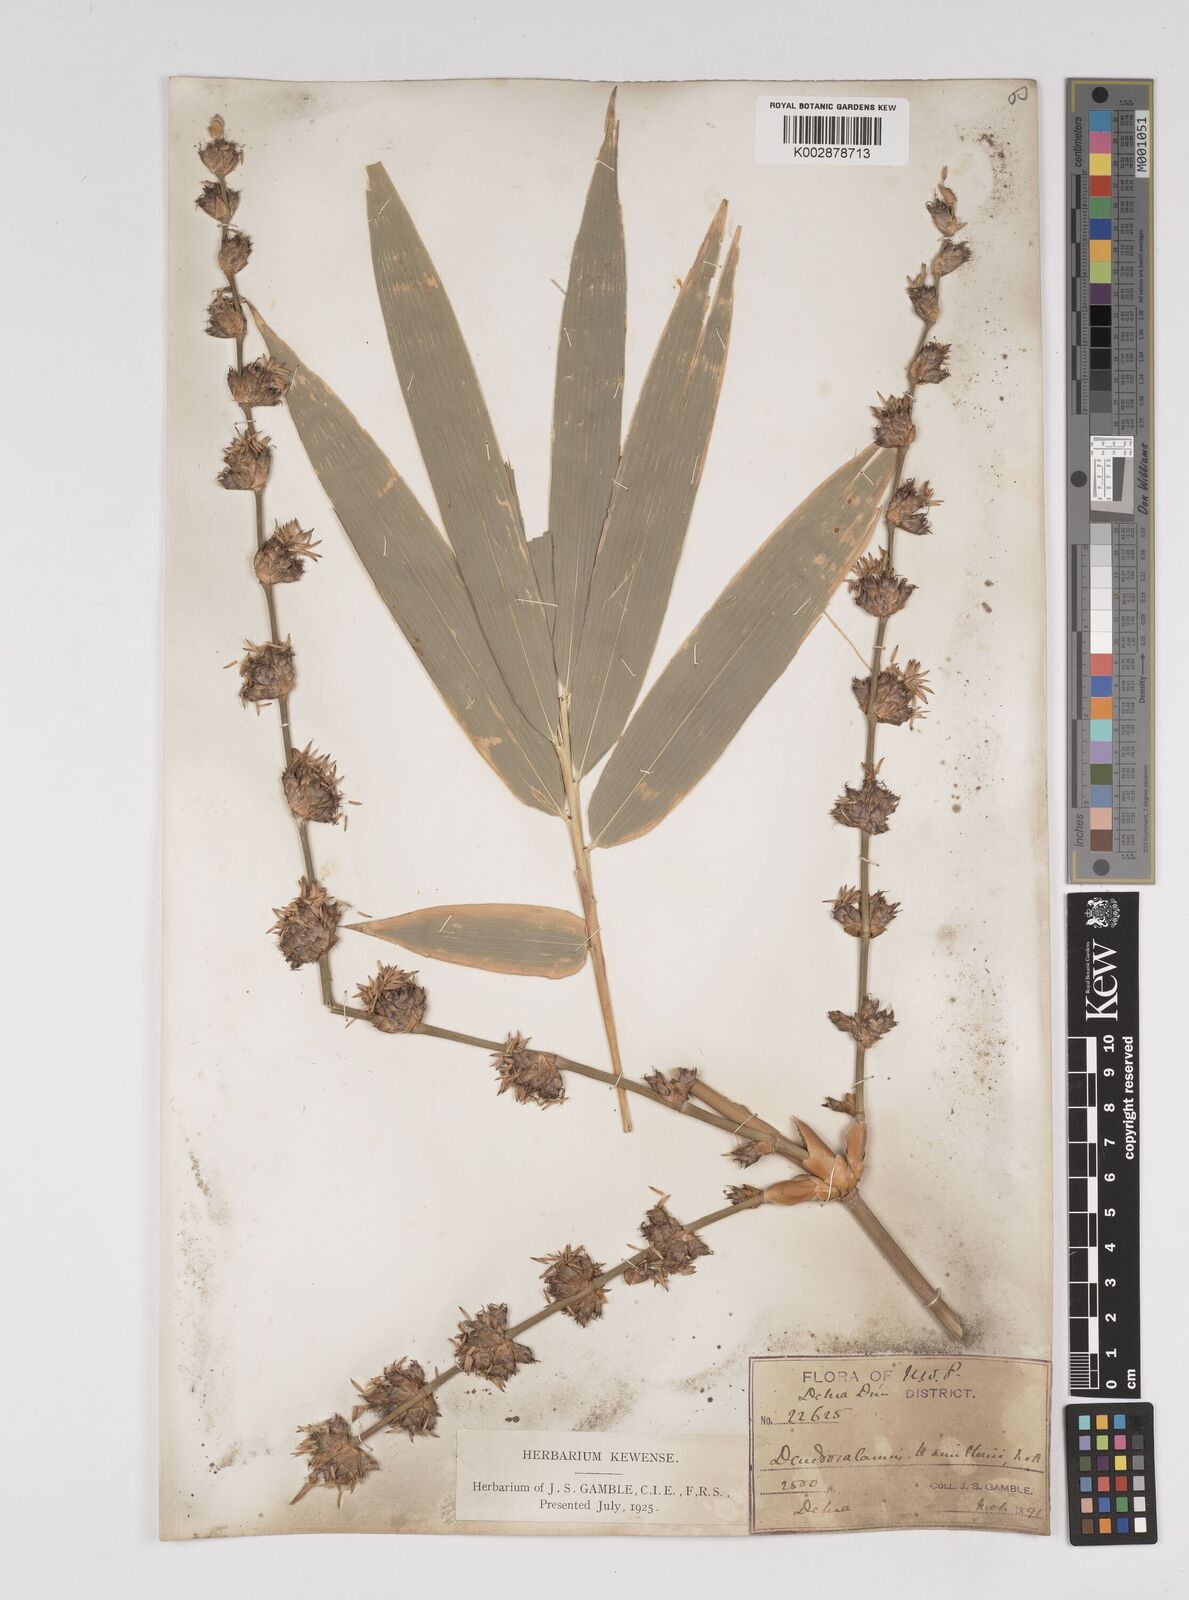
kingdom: Plantae
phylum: Tracheophyta
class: Liliopsida
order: Poales
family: Poaceae
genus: Dendrocalamus
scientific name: Dendrocalamus hamiltonii
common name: Tama bamboo
